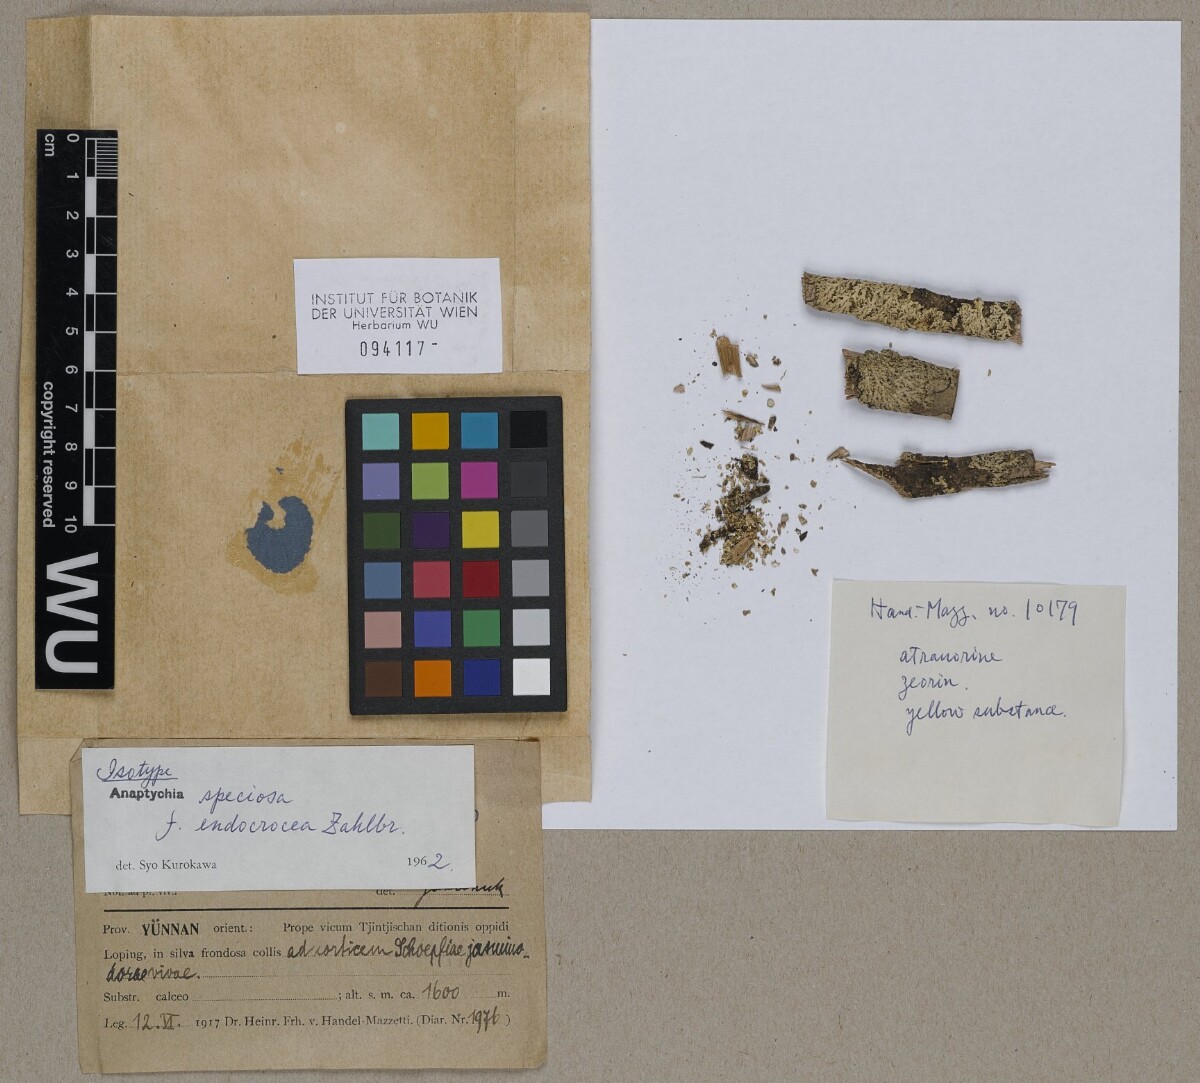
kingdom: Fungi
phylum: Ascomycota
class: Lecanoromycetes
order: Caliciales
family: Physciaceae
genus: Heterodermia
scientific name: Heterodermia speciosa
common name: Powdered fringe lichen
